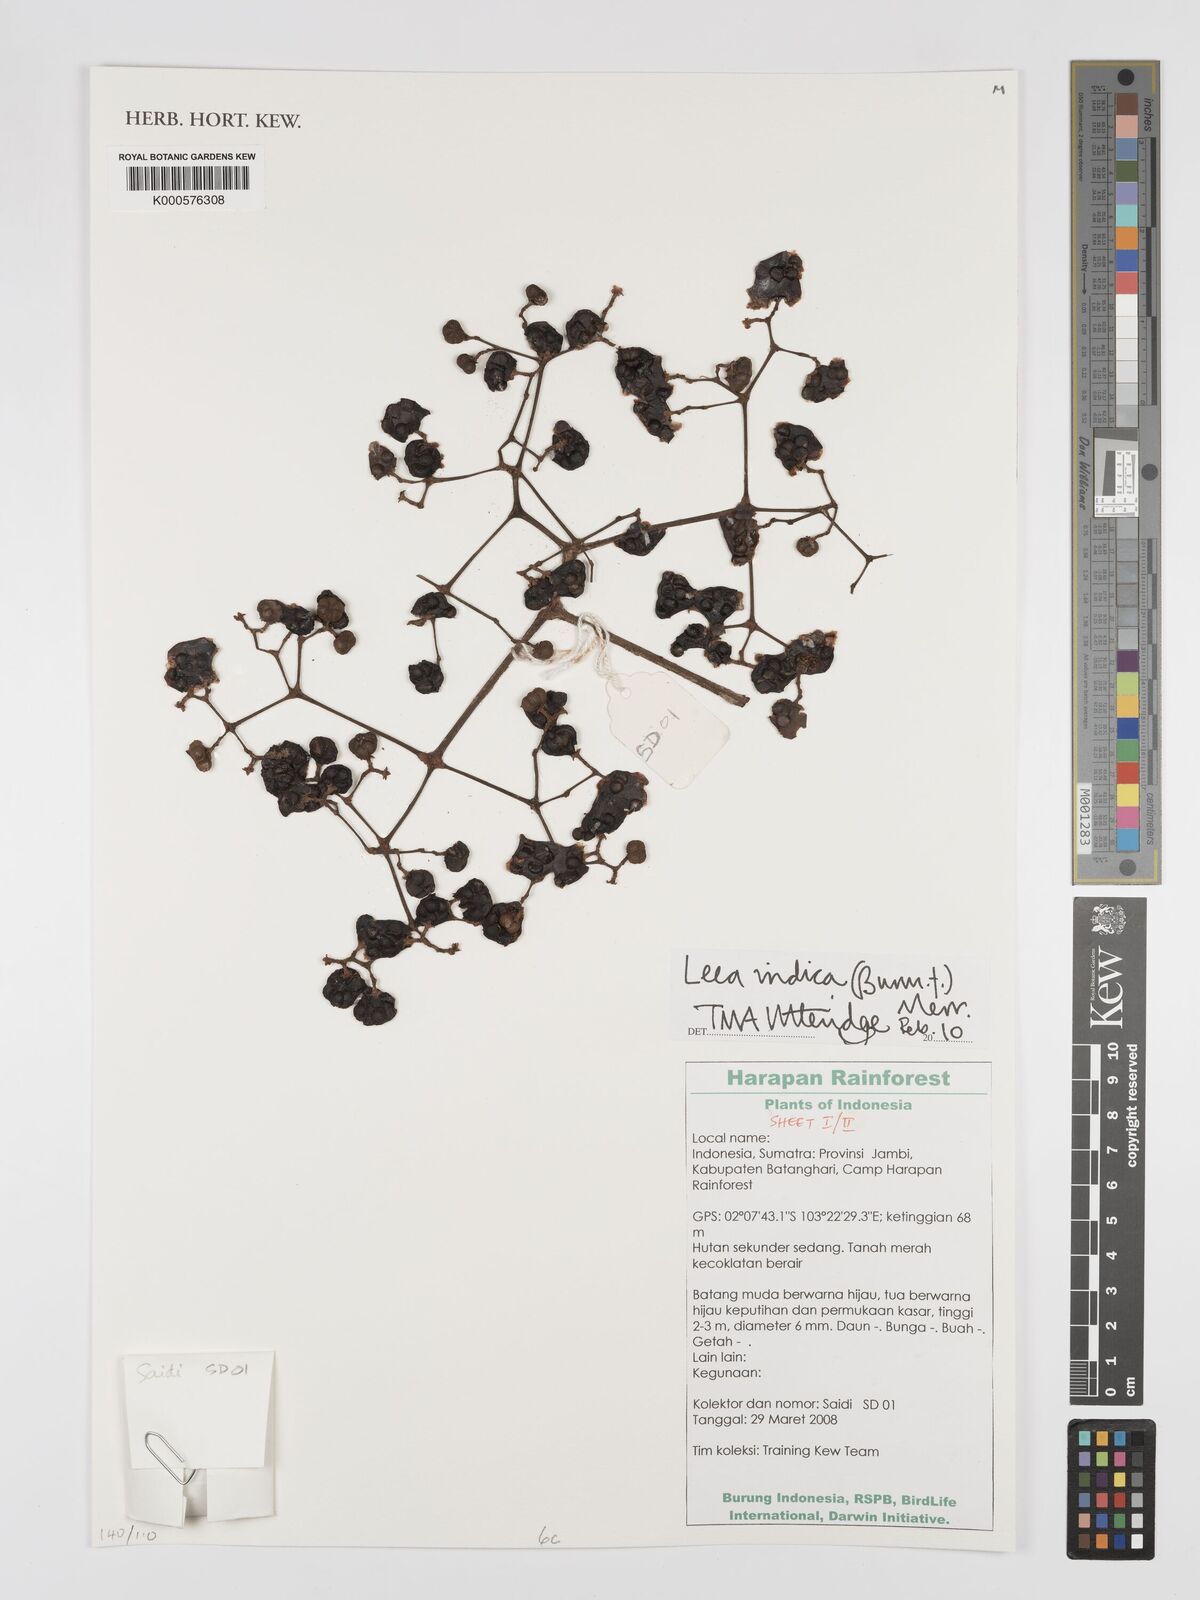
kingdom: Plantae
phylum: Tracheophyta
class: Magnoliopsida
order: Vitales
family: Vitaceae
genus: Leea
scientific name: Leea indica
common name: Bandicoot-berry
